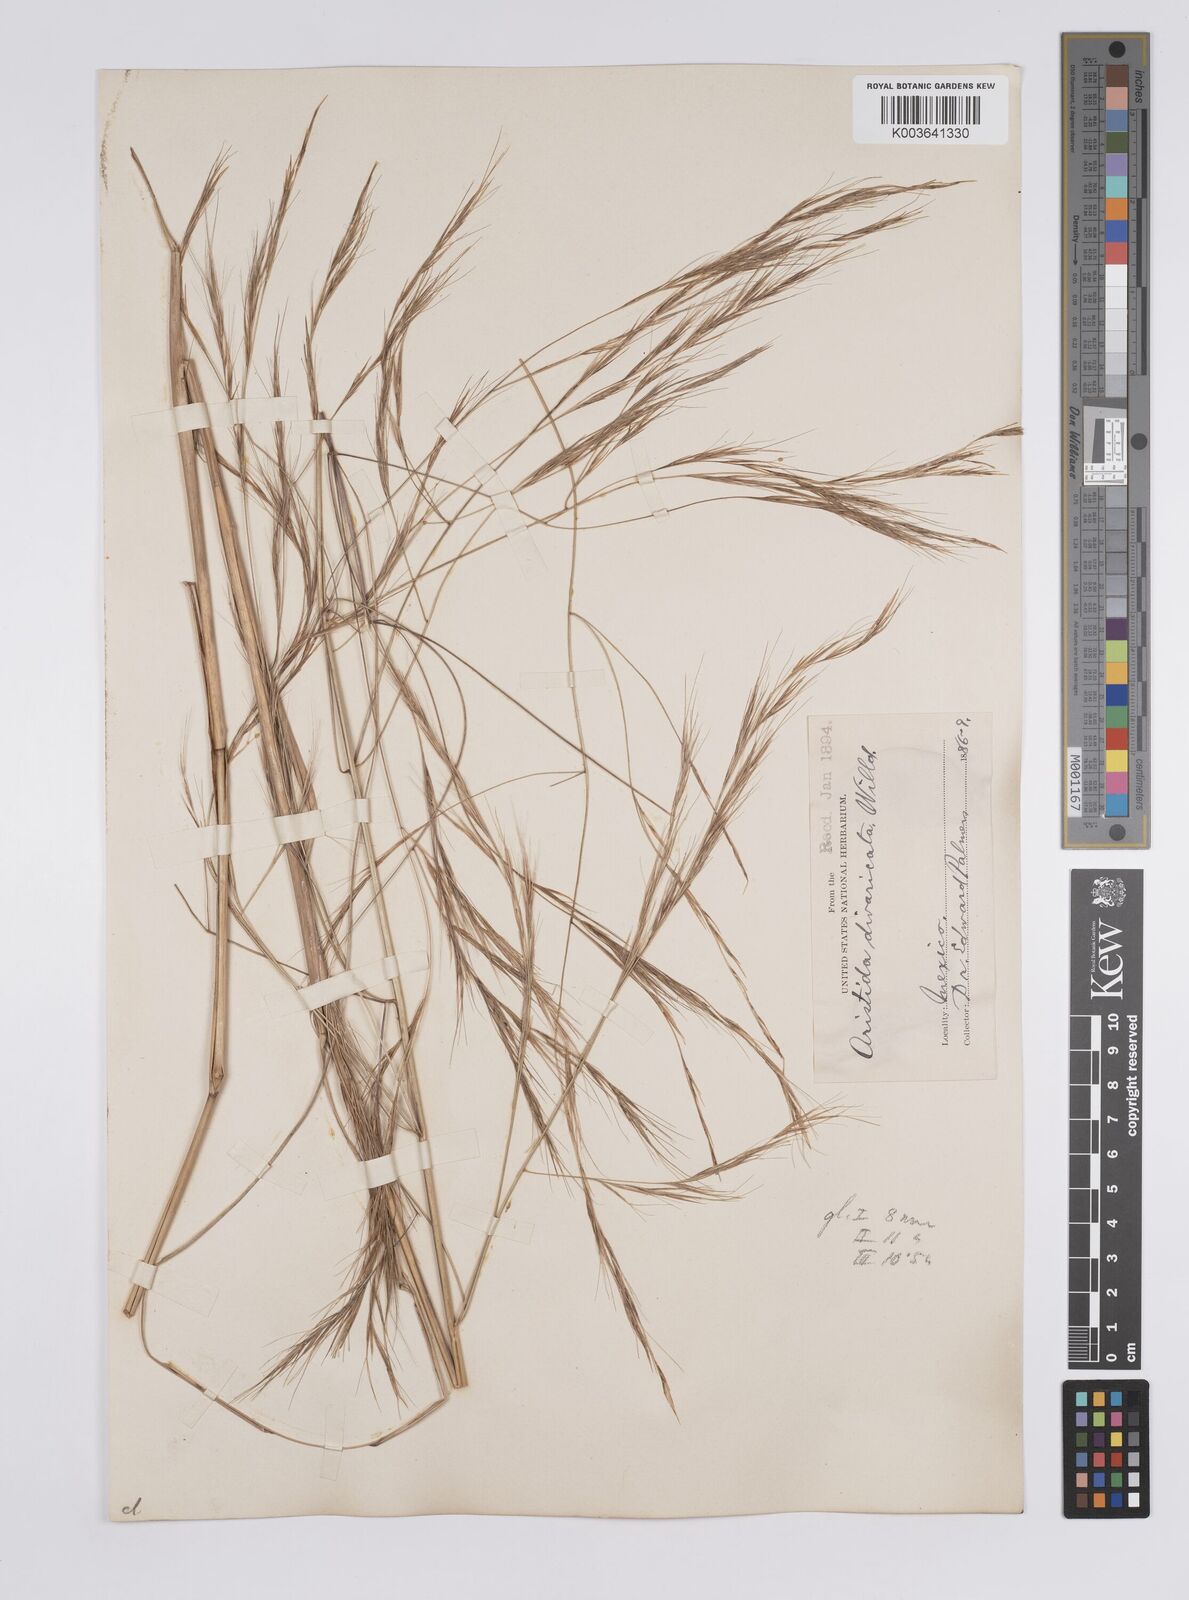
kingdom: Plantae
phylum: Tracheophyta
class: Liliopsida
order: Poales
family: Poaceae
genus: Aristida
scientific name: Aristida divaricata
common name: Poverty grass
